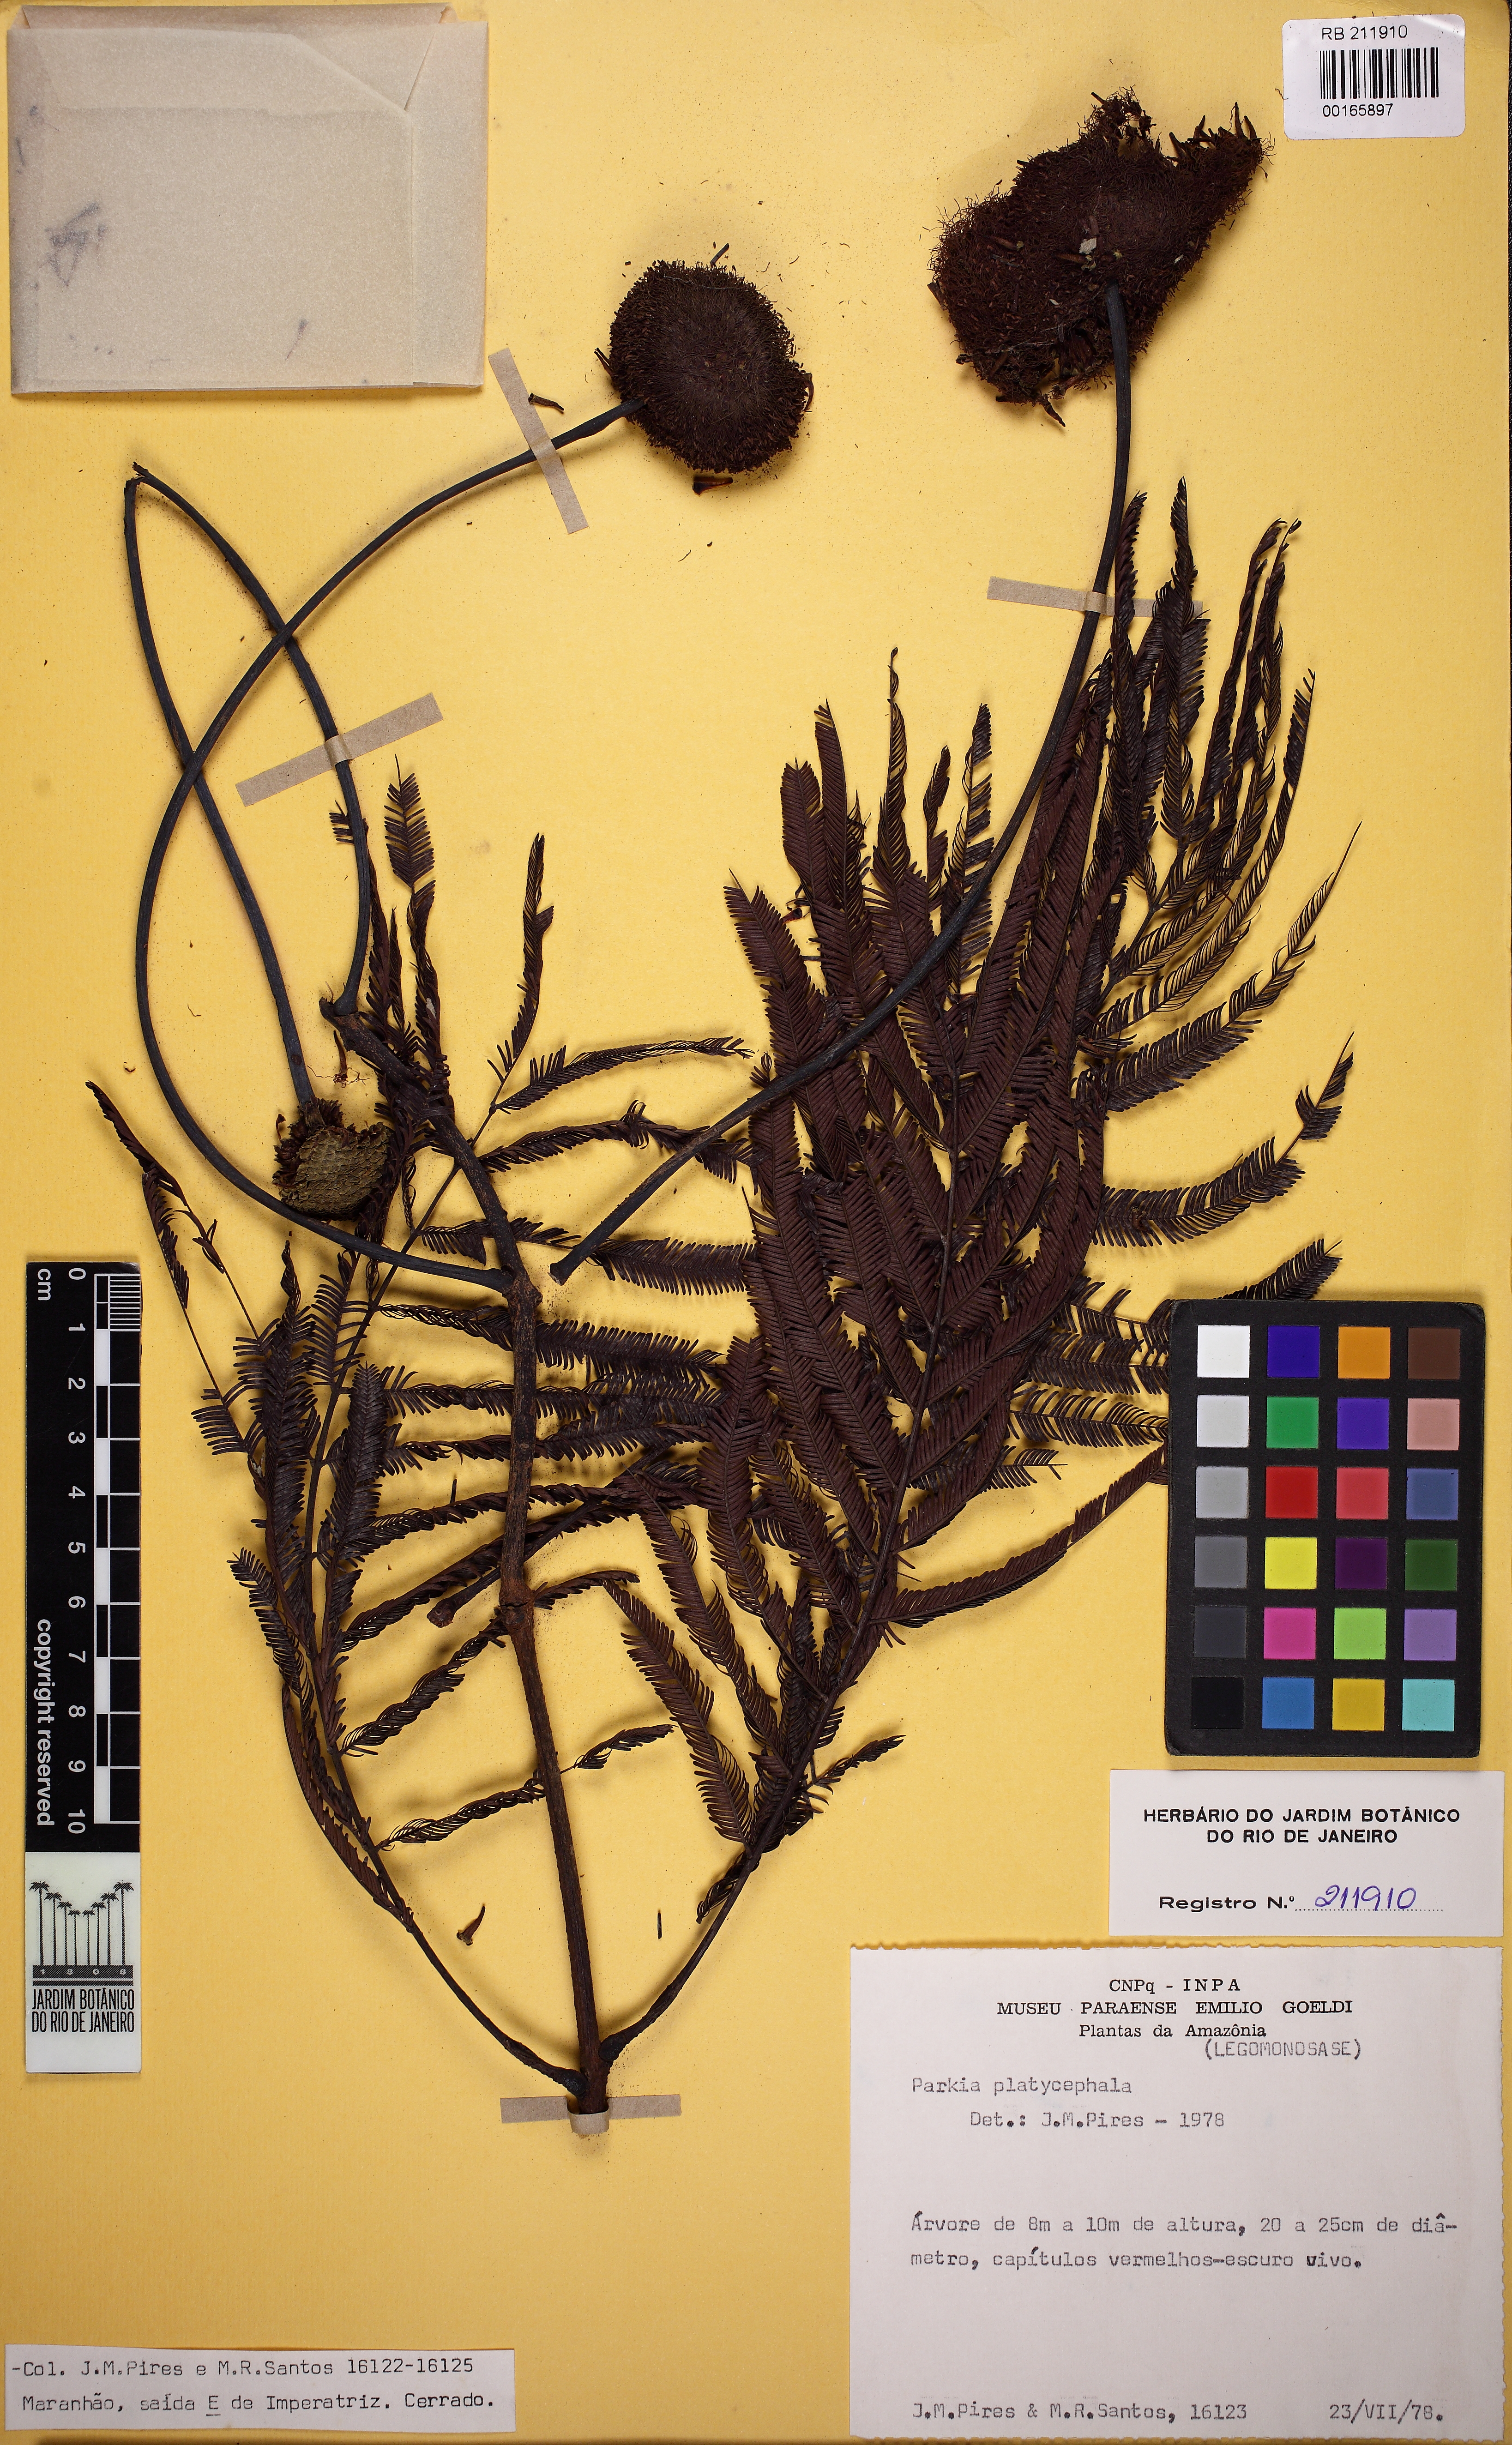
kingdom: Plantae
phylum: Tracheophyta
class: Magnoliopsida
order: Fabales
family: Fabaceae
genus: Parkia
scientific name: Parkia platycephala
